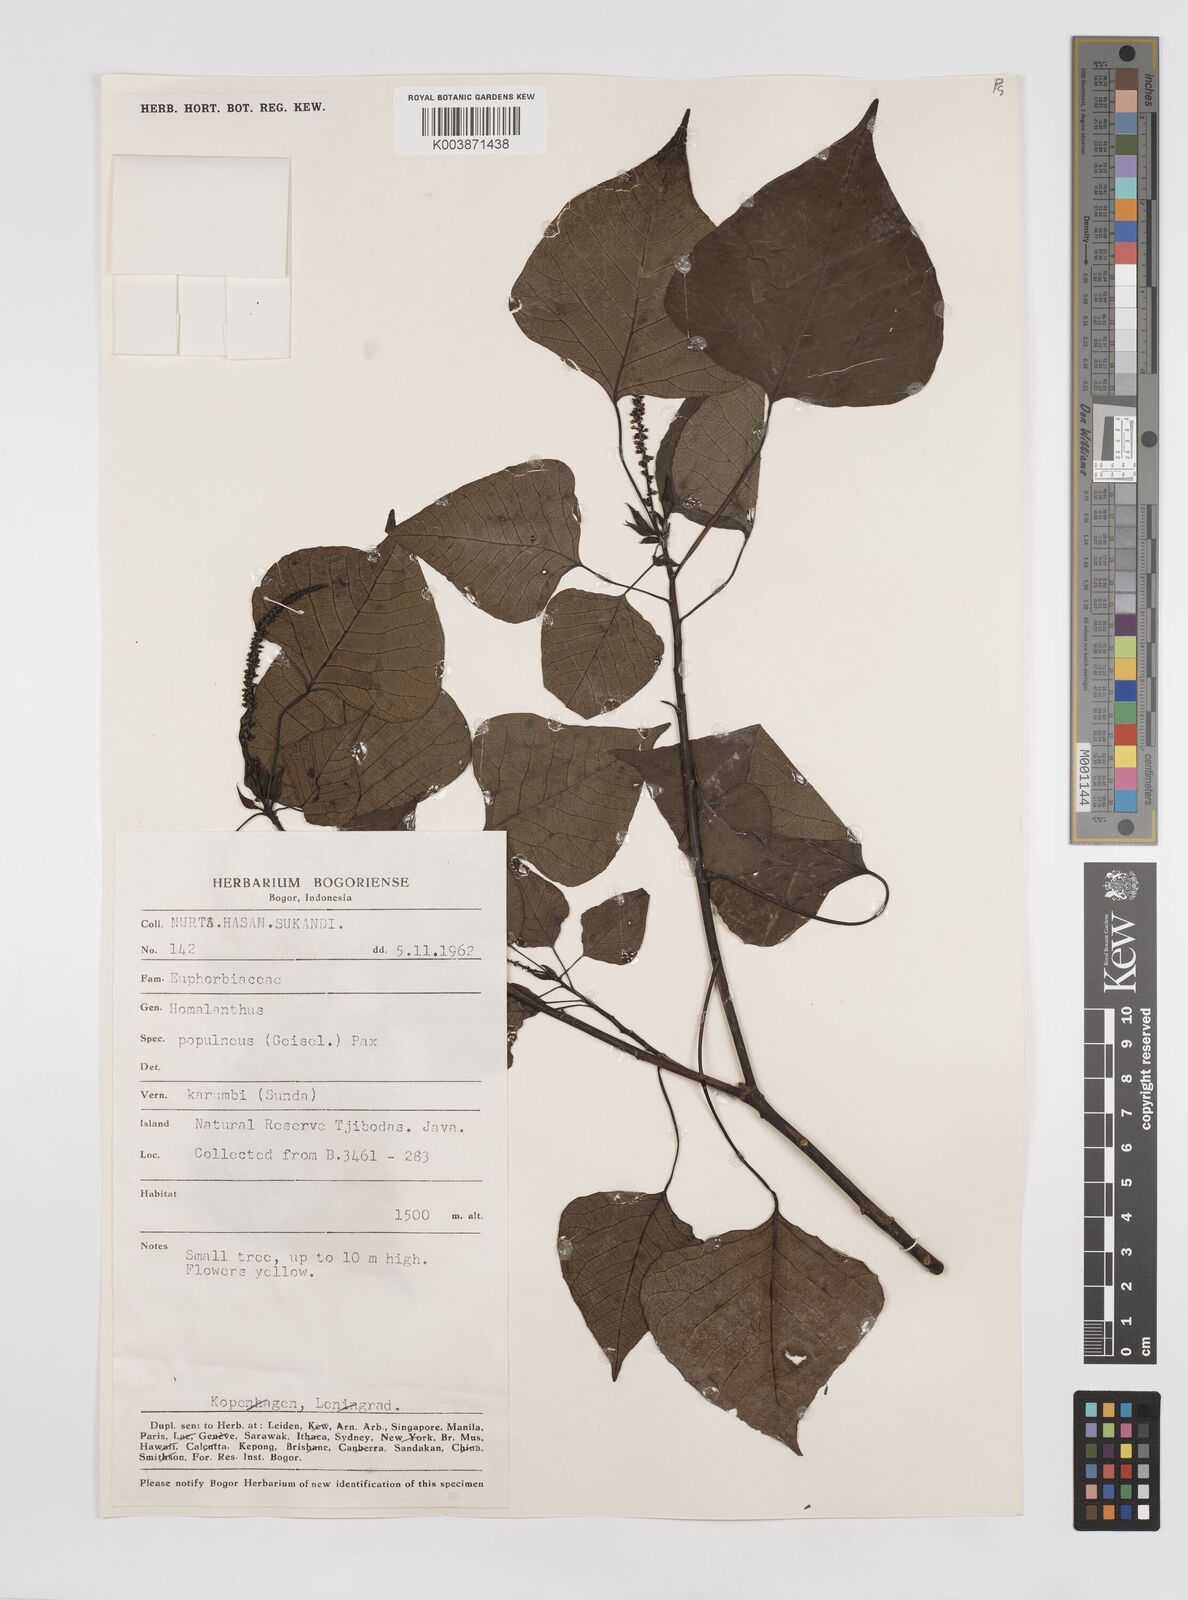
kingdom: Plantae
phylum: Tracheophyta
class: Magnoliopsida
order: Malpighiales
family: Euphorbiaceae
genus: Homalanthus
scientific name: Homalanthus populneus
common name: Spurge
